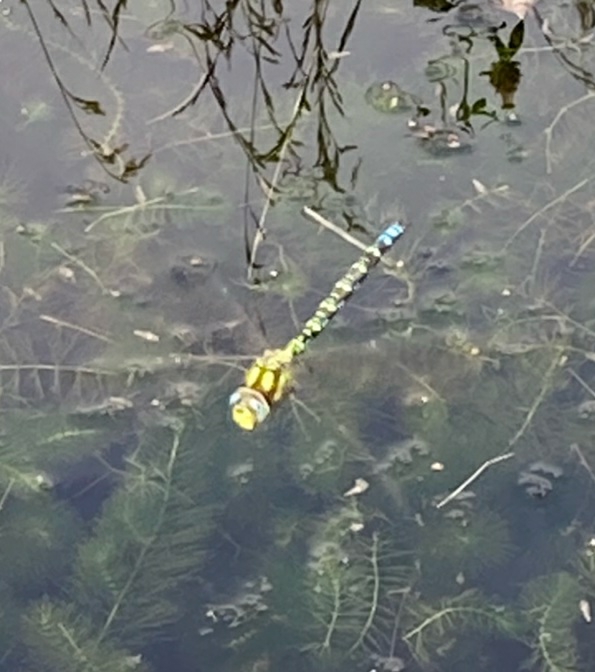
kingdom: Animalia
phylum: Arthropoda
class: Insecta
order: Odonata
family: Aeshnidae
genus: Aeshna
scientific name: Aeshna cyanea
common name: Blå mosaikguldsmed
